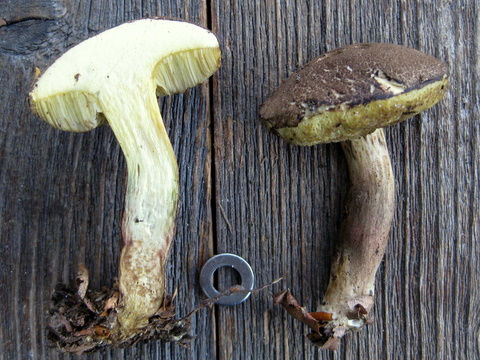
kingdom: Fungi
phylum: Basidiomycota
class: Agaricomycetes
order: Boletales
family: Boletaceae
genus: Xerocomellus
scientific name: Xerocomellus porosporus
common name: hvidsprukken rørhat
